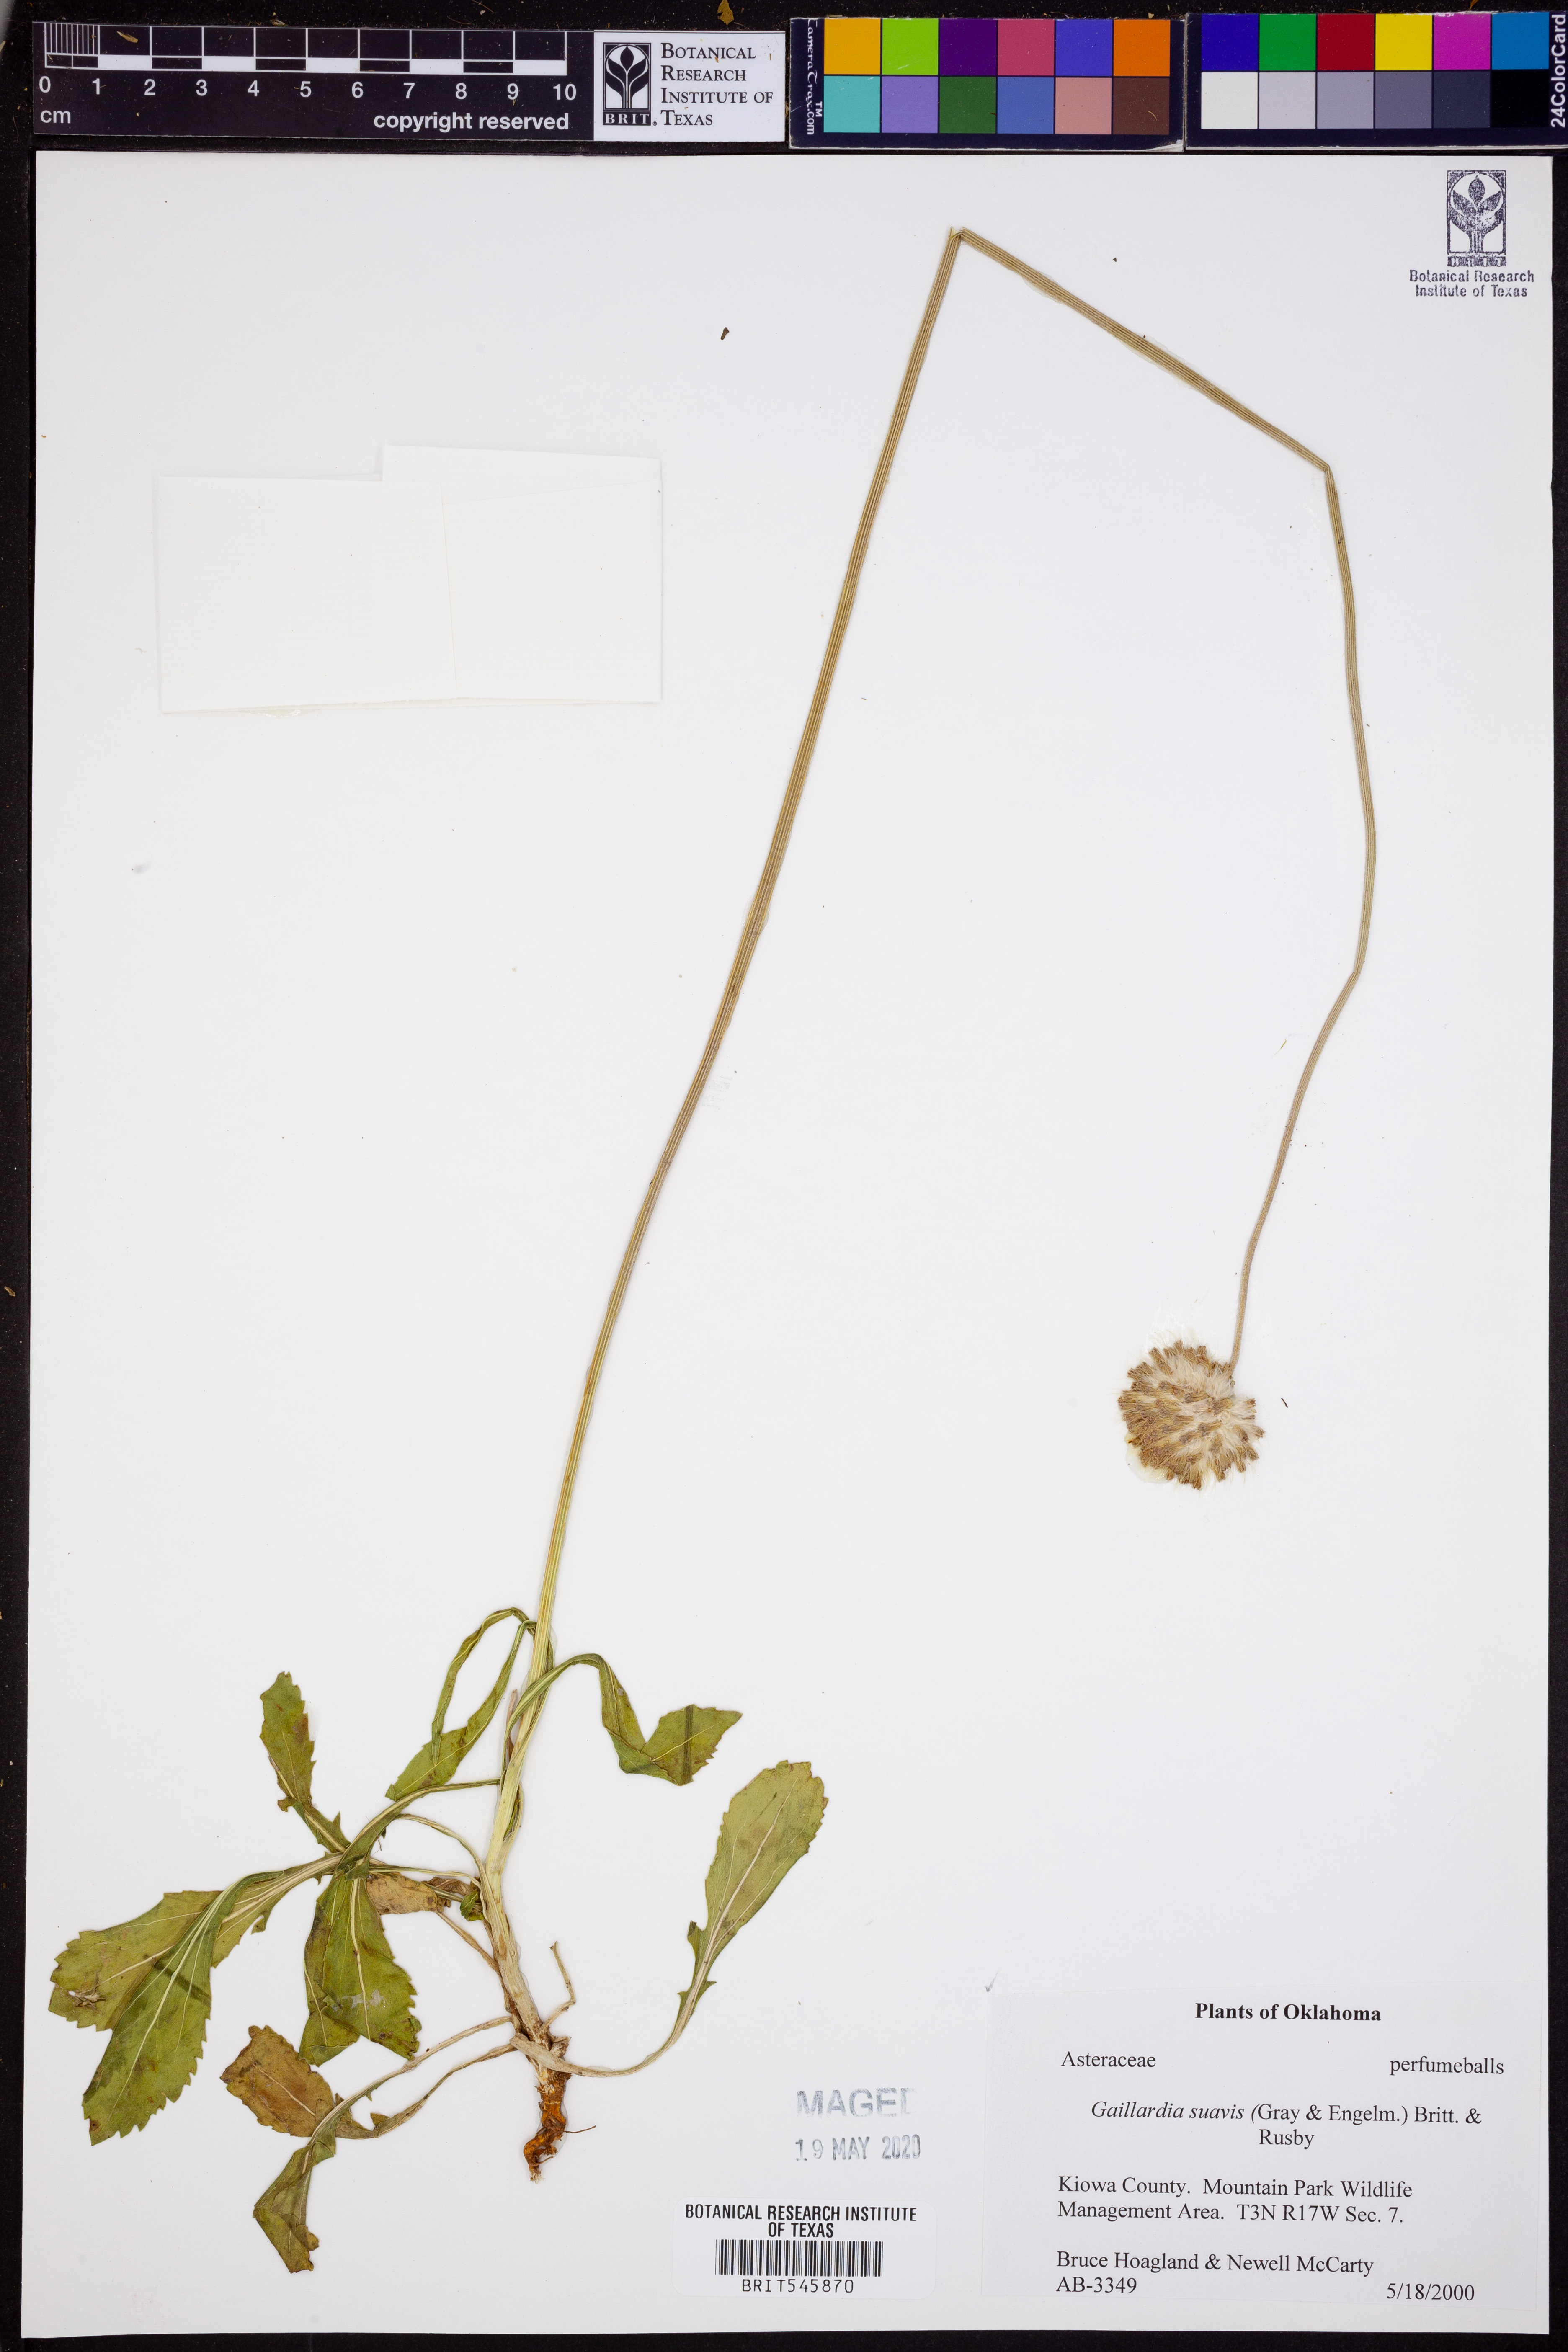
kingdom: Plantae
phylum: Tracheophyta
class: Magnoliopsida
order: Asterales
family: Asteraceae
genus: Gaillardia
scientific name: Gaillardia suavis
